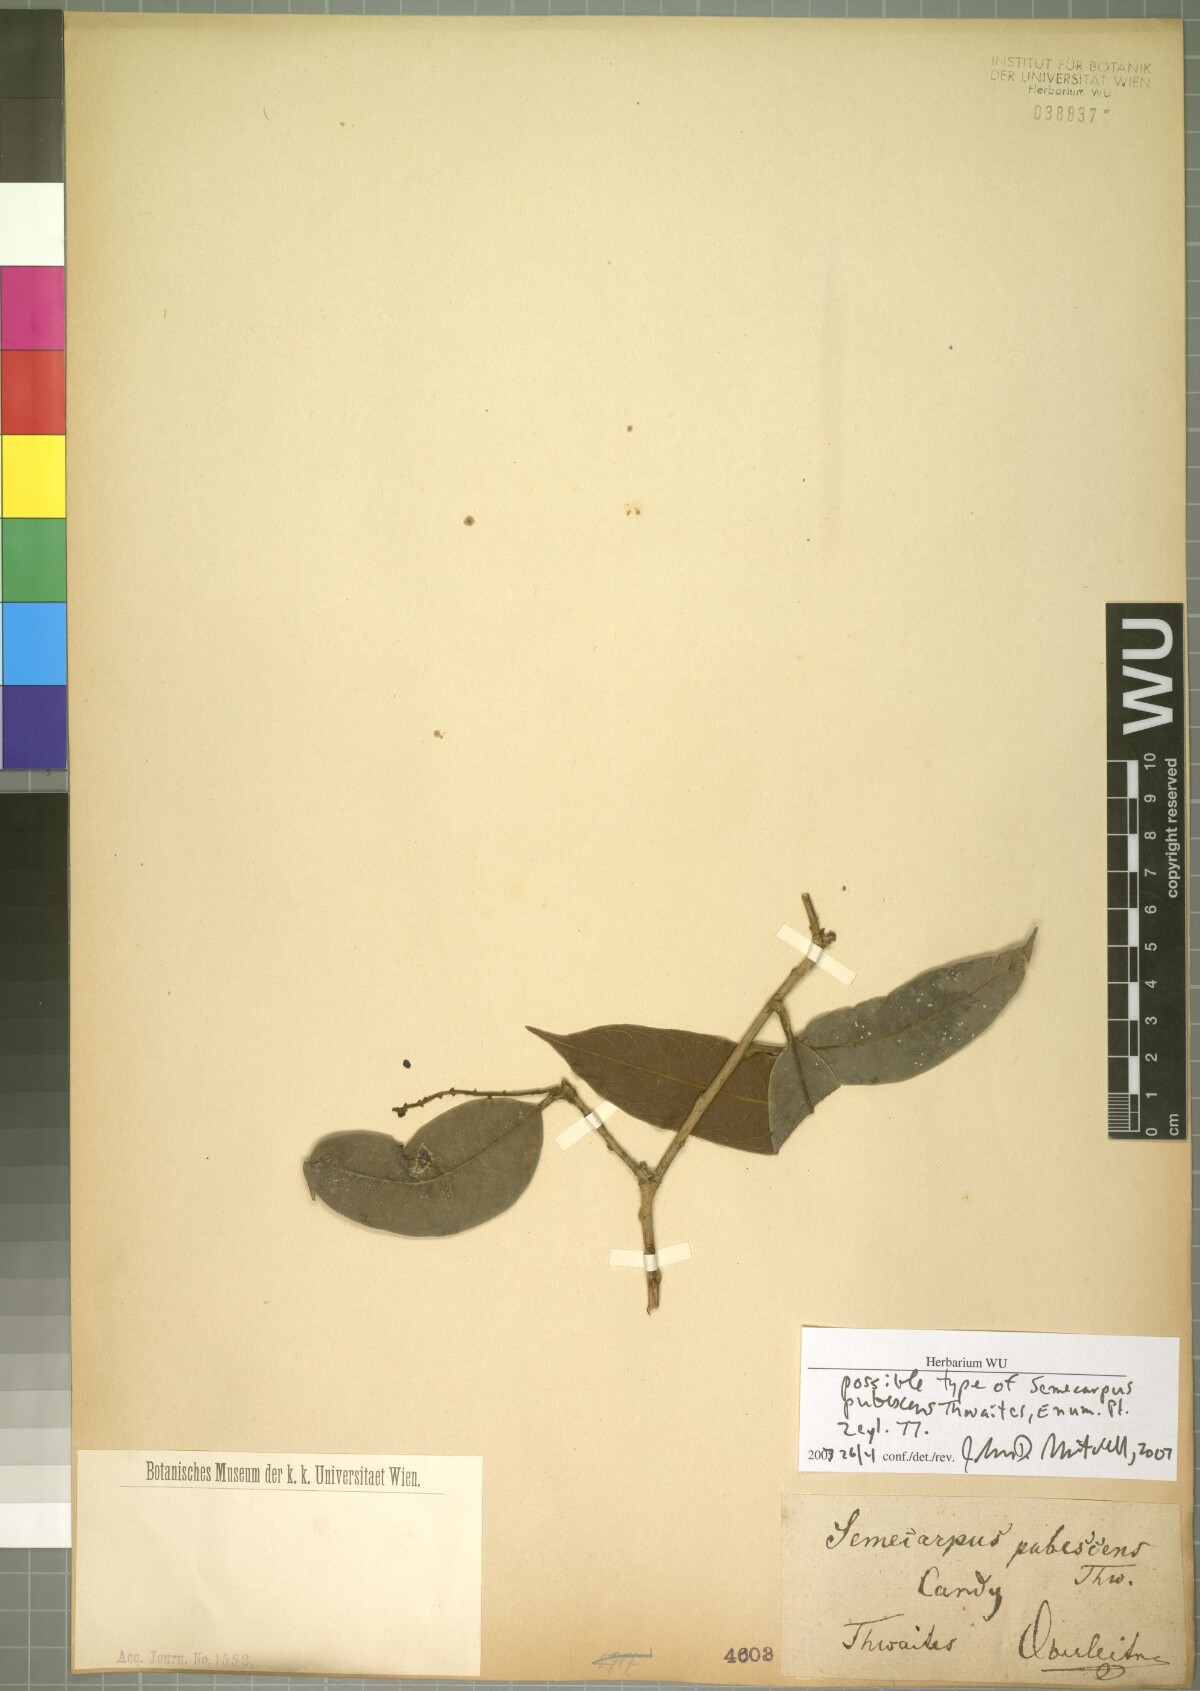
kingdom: Plantae
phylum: Tracheophyta
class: Magnoliopsida
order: Sapindales
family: Anacardiaceae
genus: Semecarpus
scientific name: Semecarpus pubescens
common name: Velvet badulla
